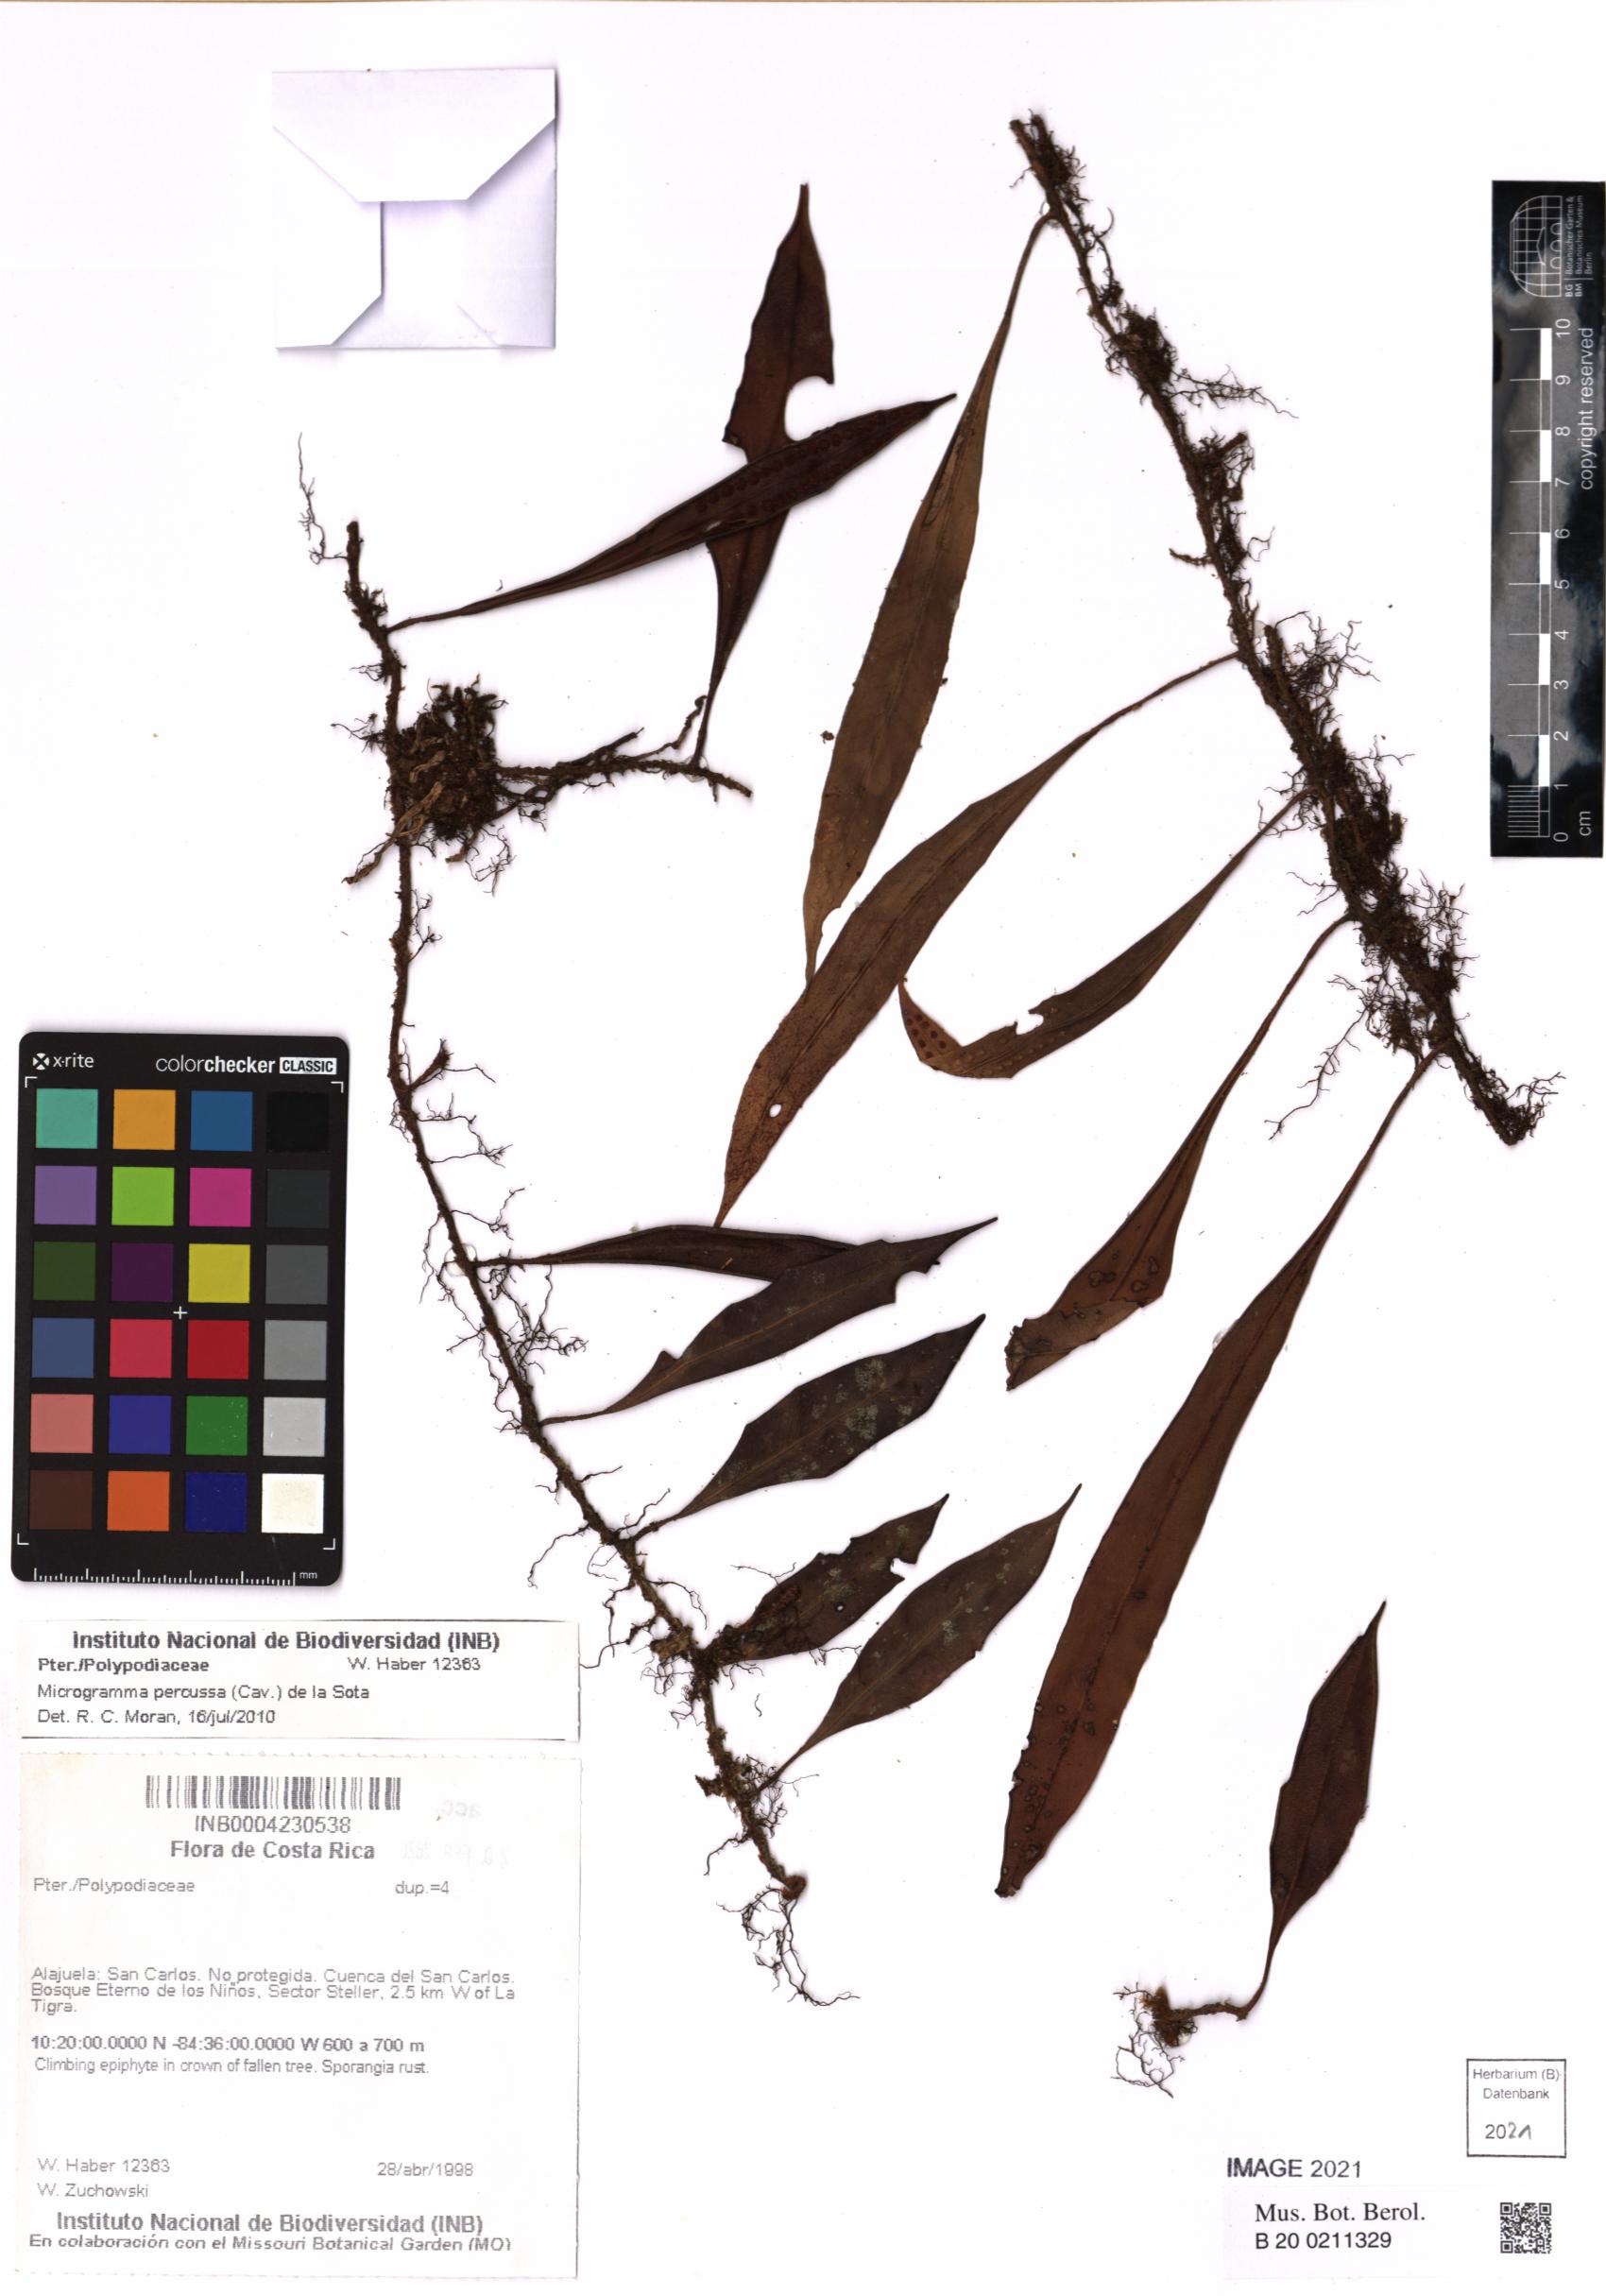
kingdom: Plantae
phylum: Tracheophyta
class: Polypodiopsida
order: Polypodiales
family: Polypodiaceae
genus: Microgramma
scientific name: Microgramma percussa
